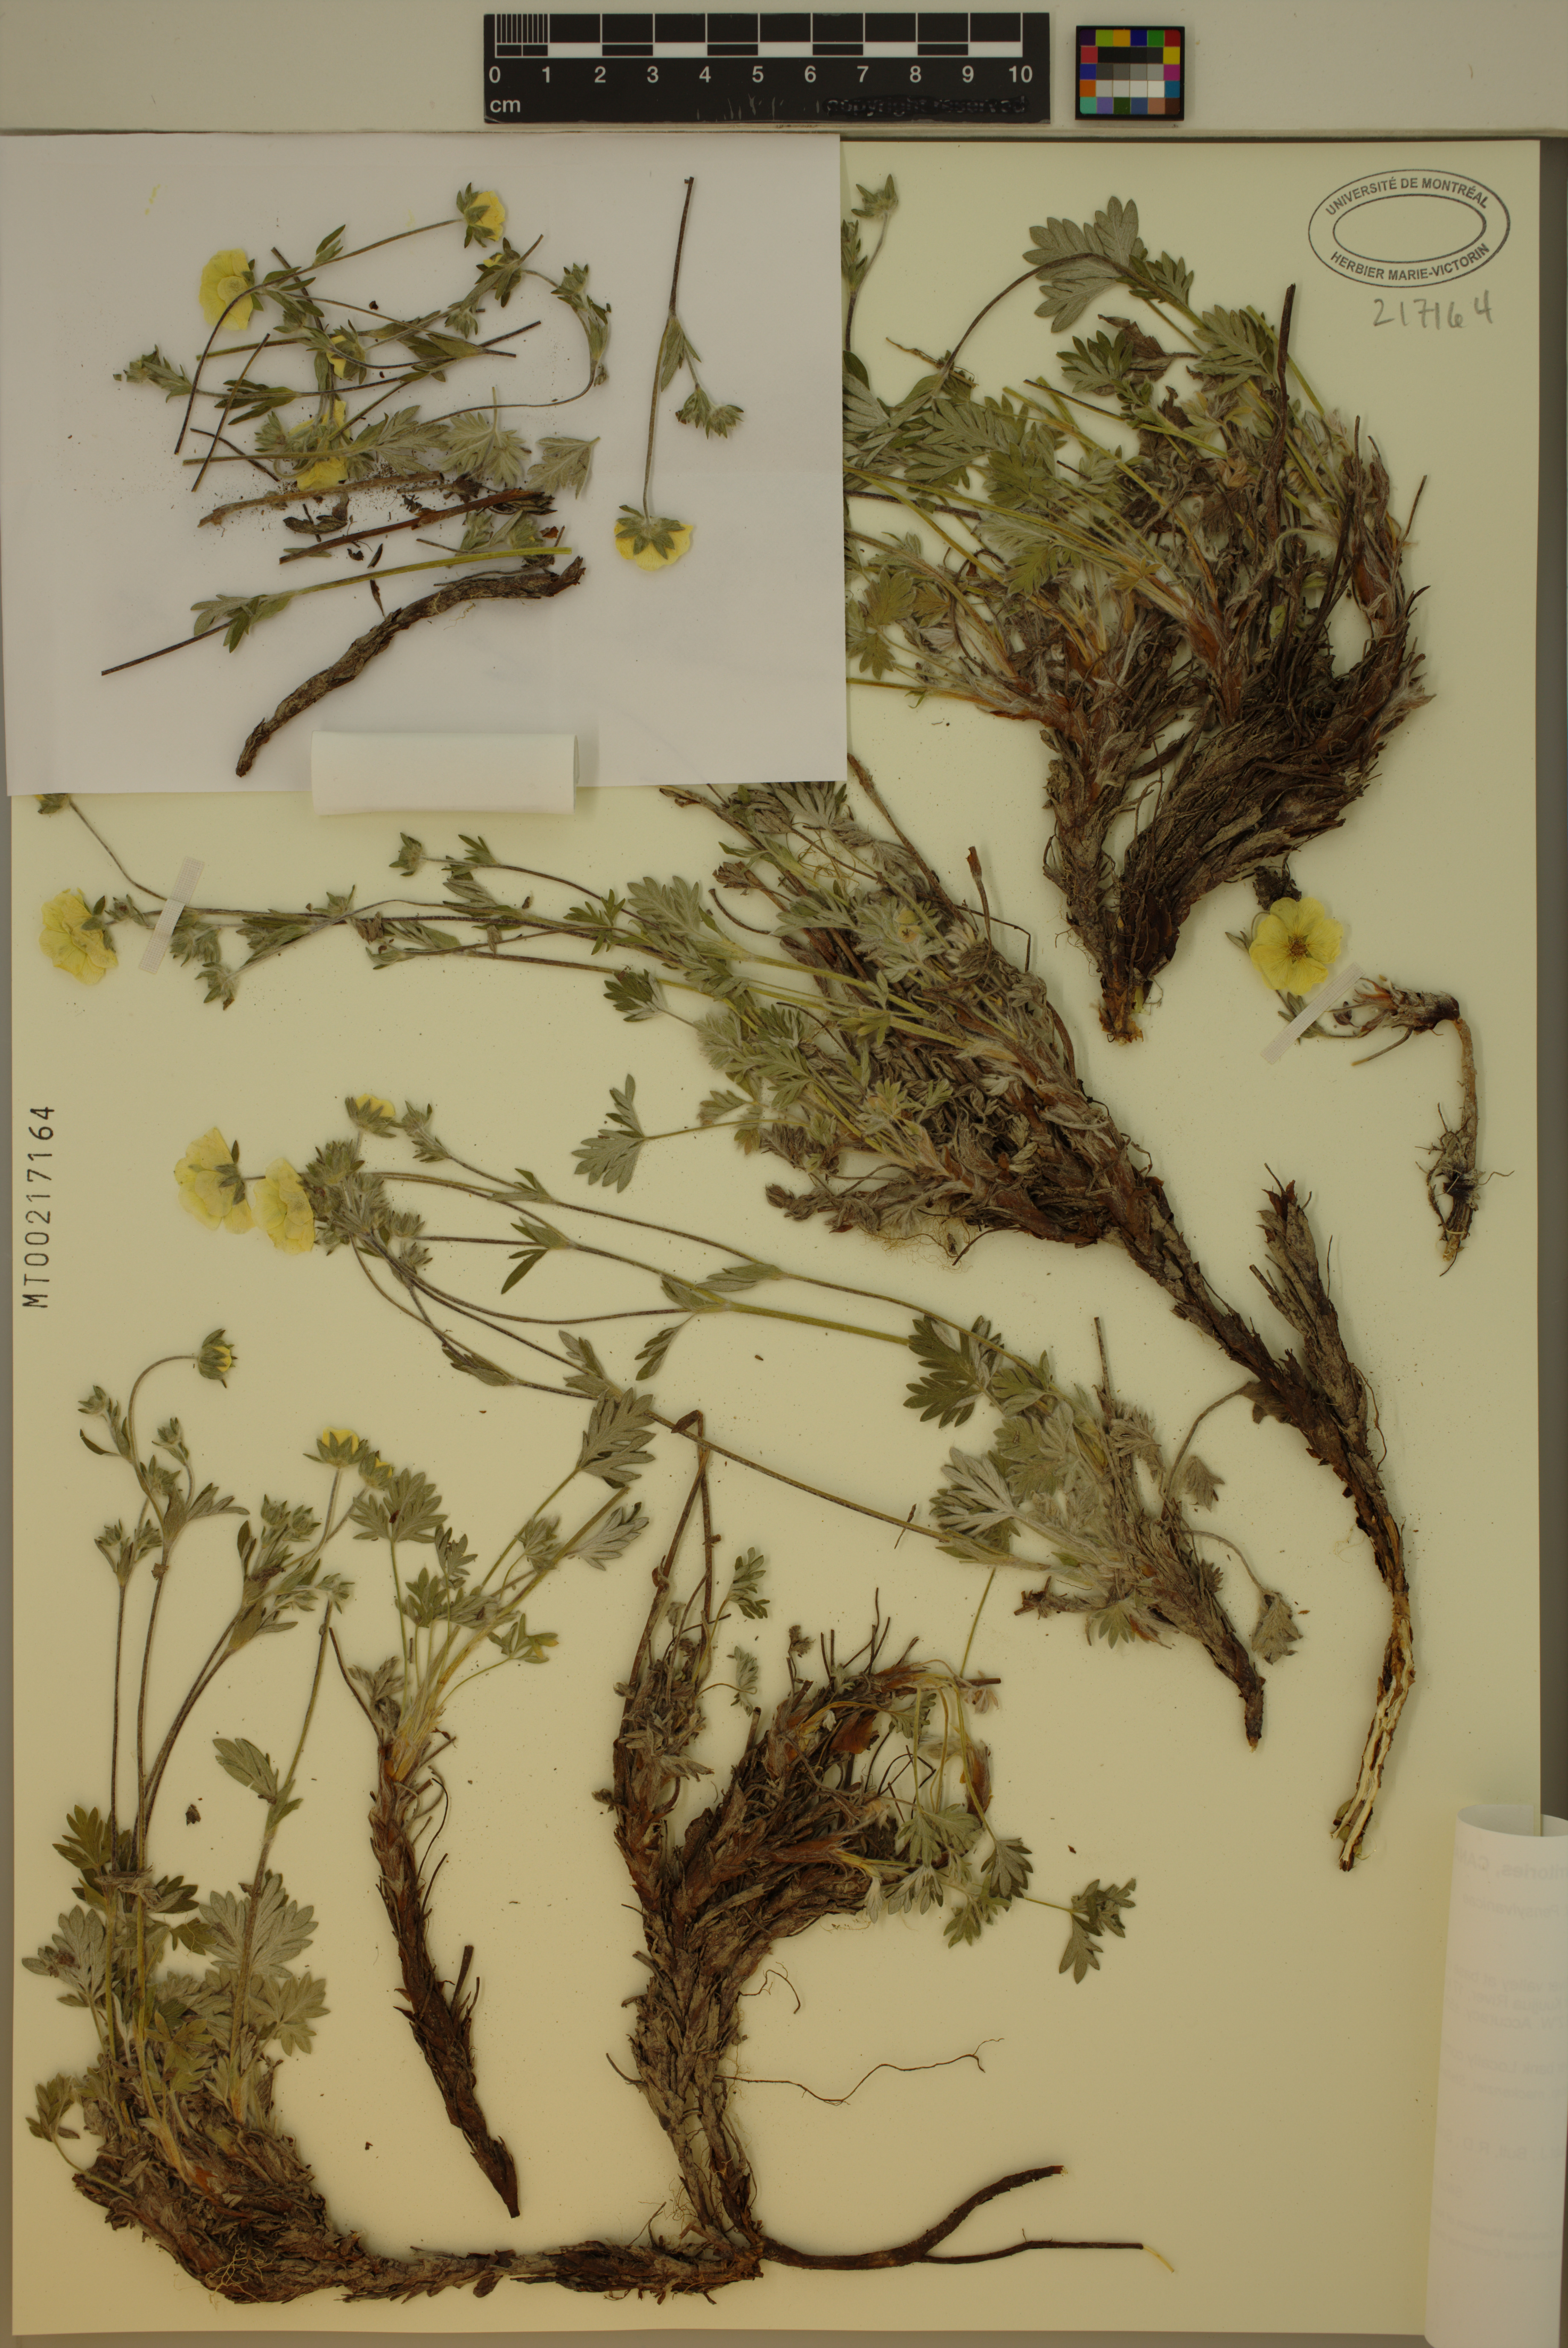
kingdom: Plantae
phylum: Tracheophyta
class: Magnoliopsida
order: Rosales
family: Rosaceae
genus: Potentilla
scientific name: Potentilla
